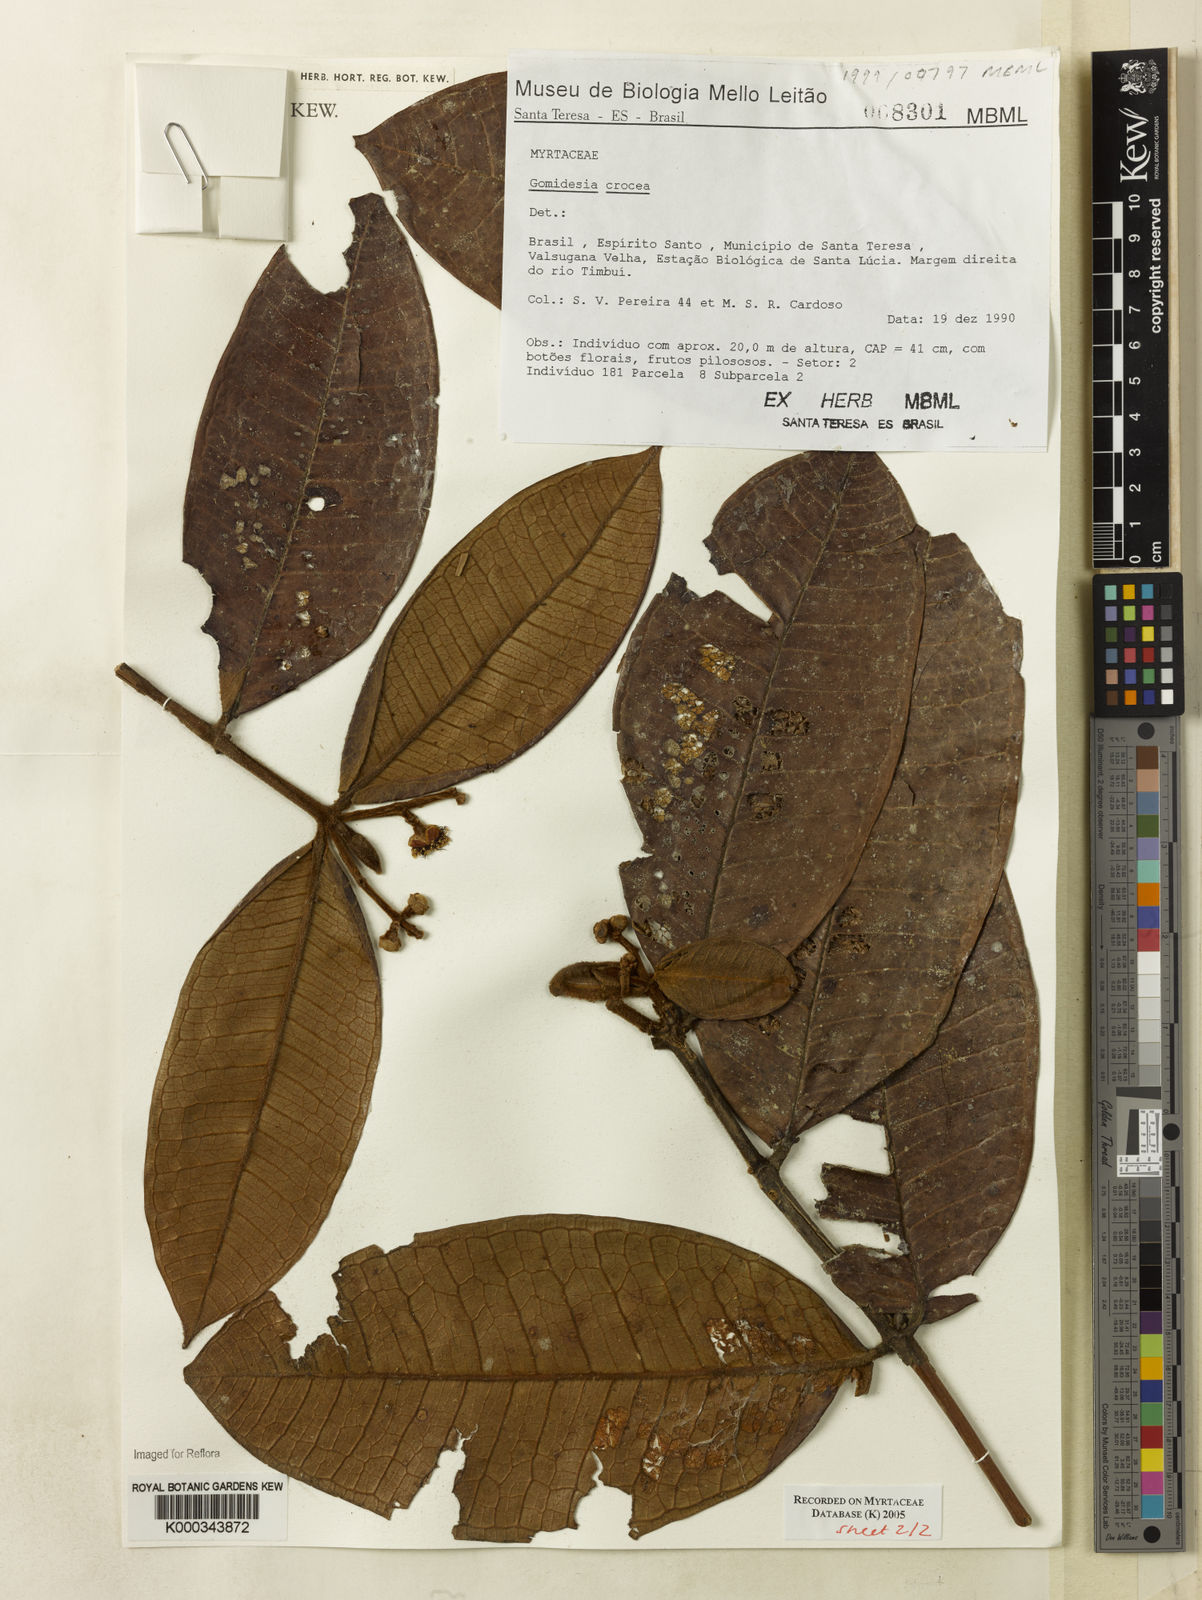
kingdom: Plantae
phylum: Tracheophyta
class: Magnoliopsida
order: Myrtales
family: Myrtaceae
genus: Myrcia
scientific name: Myrcia amplexicaulis
